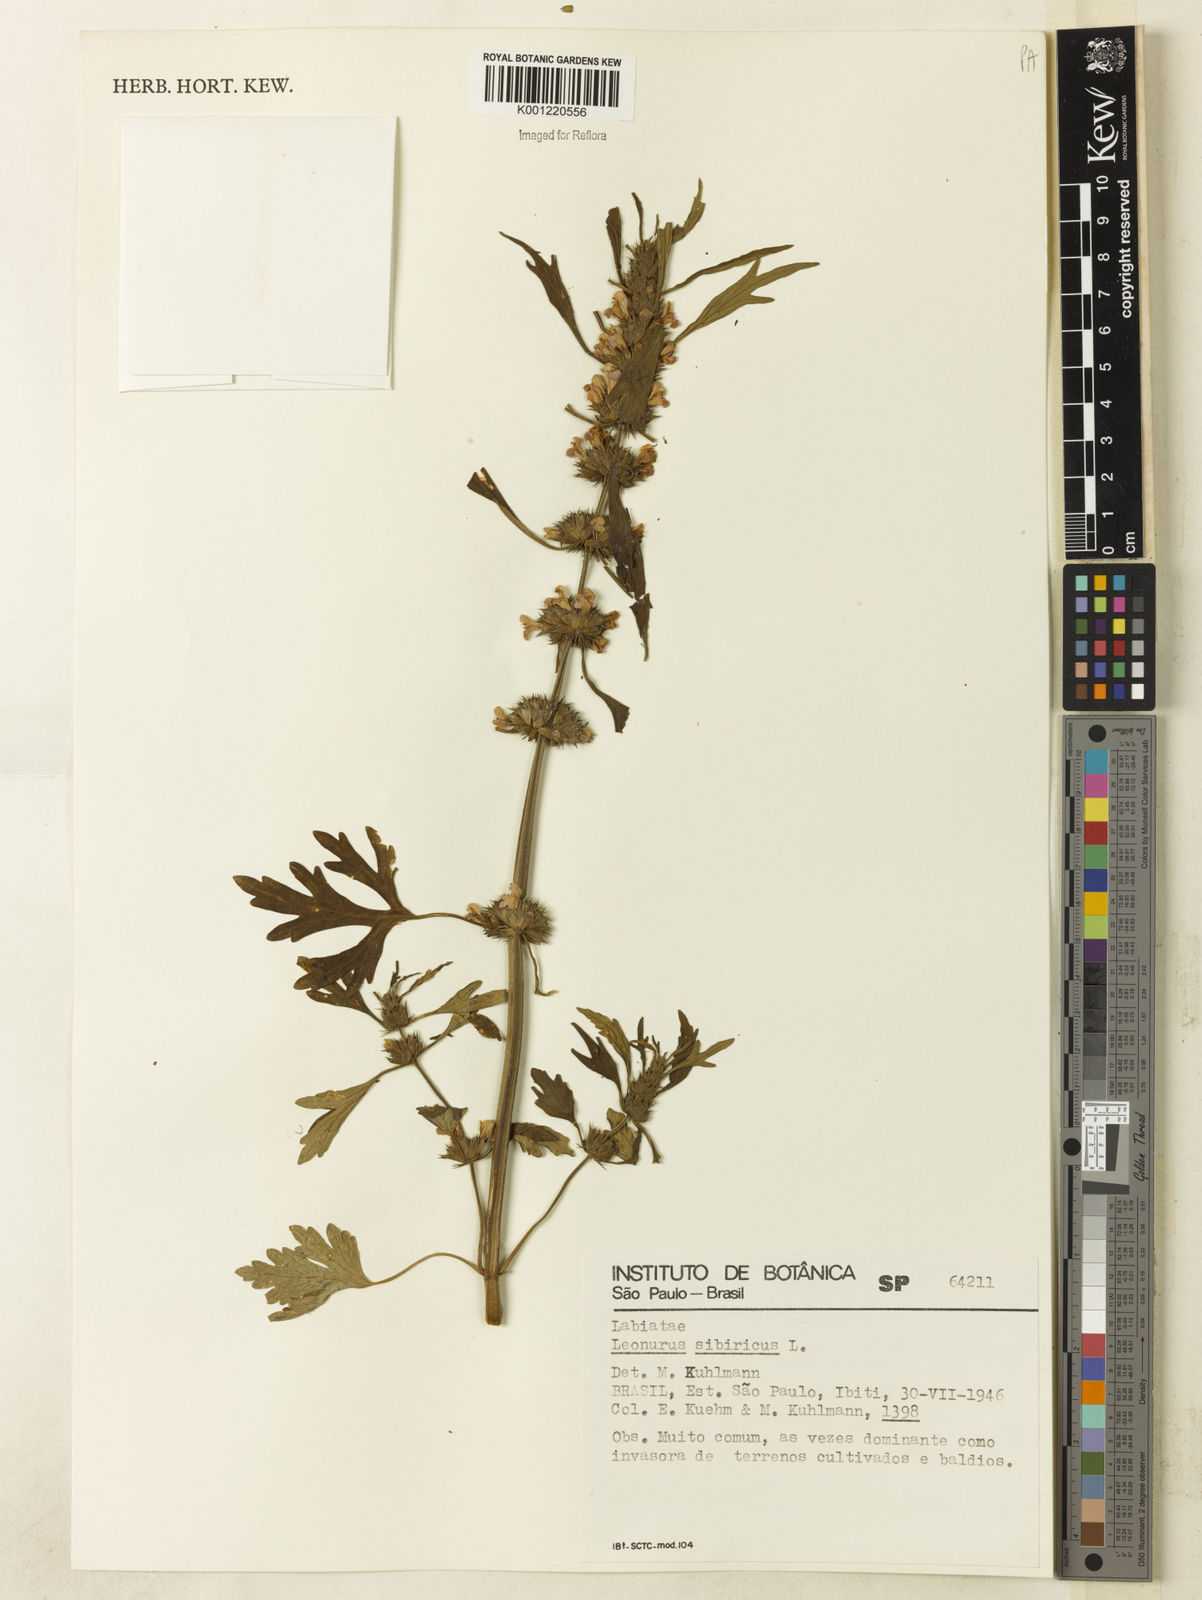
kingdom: Plantae
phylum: Tracheophyta
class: Magnoliopsida
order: Lamiales
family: Lamiaceae
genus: Leonurus
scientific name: Leonurus japonicus
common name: Honeyweed
